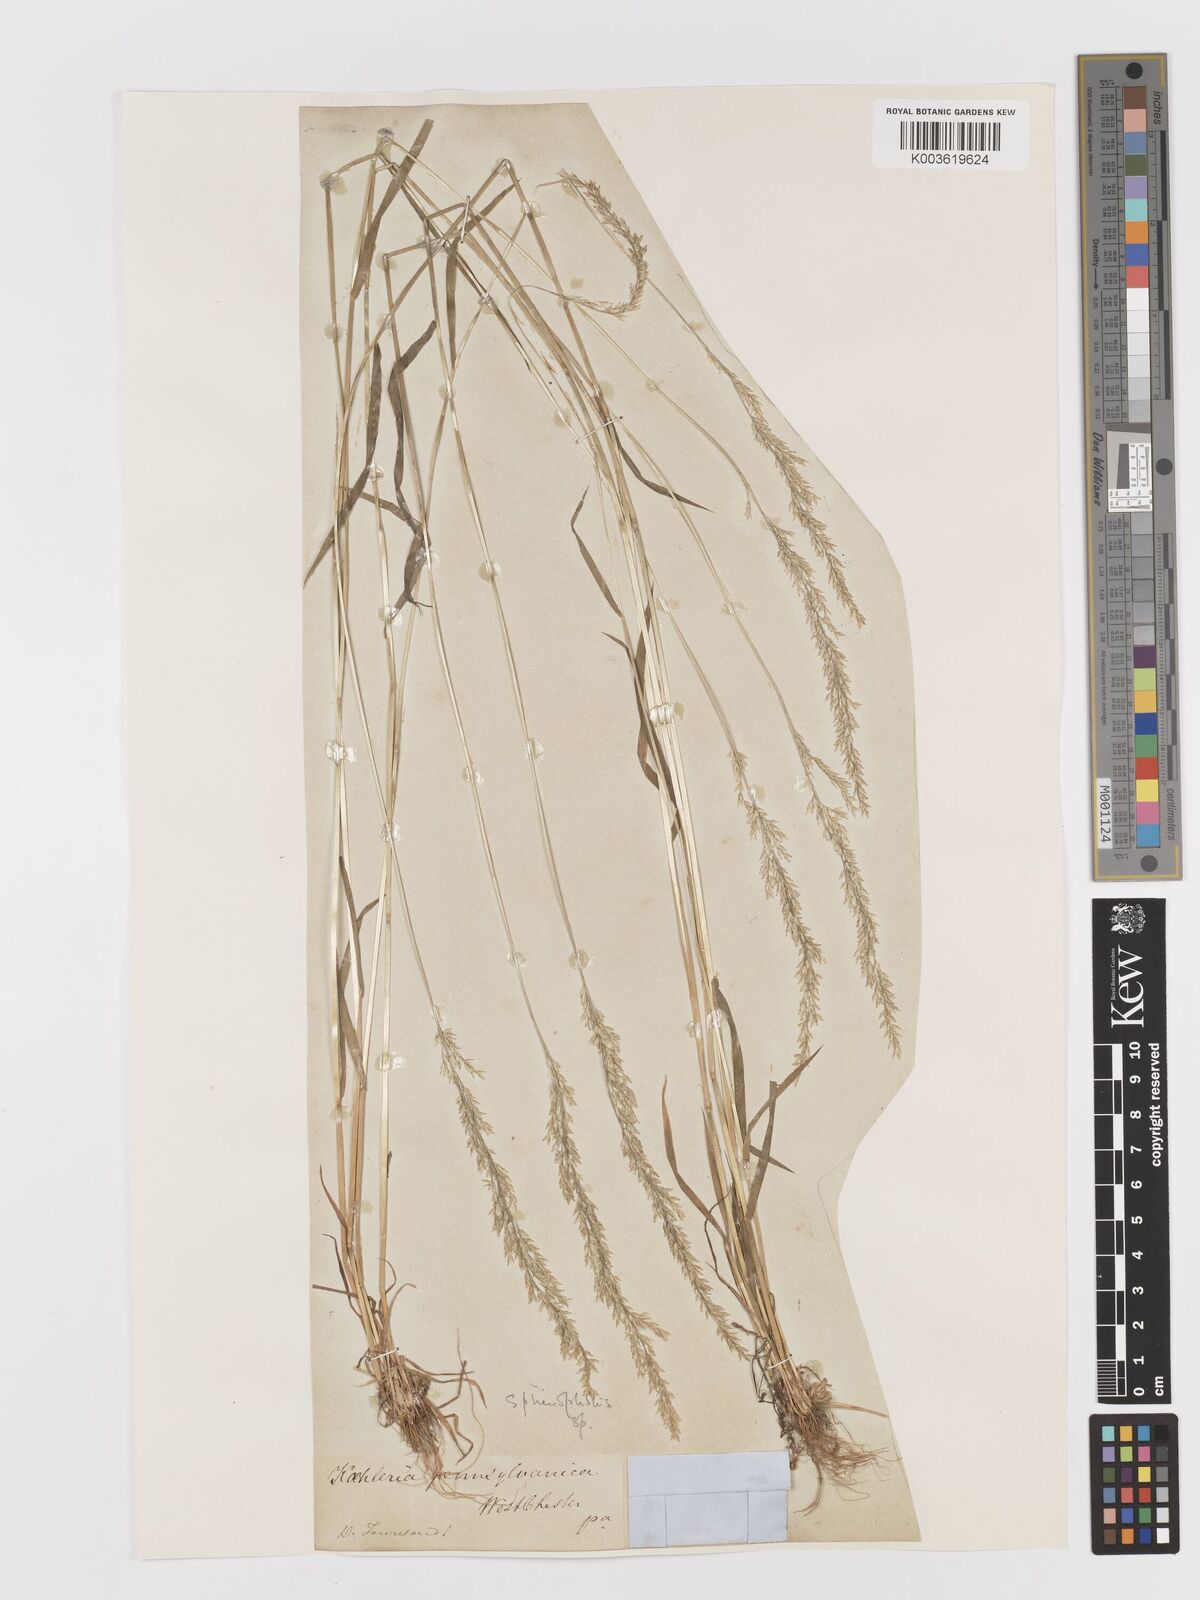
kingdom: Plantae
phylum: Tracheophyta
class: Liliopsida
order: Poales
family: Poaceae
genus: Sphenopholis
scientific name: Sphenopholis obtusata
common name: Prairie grass
